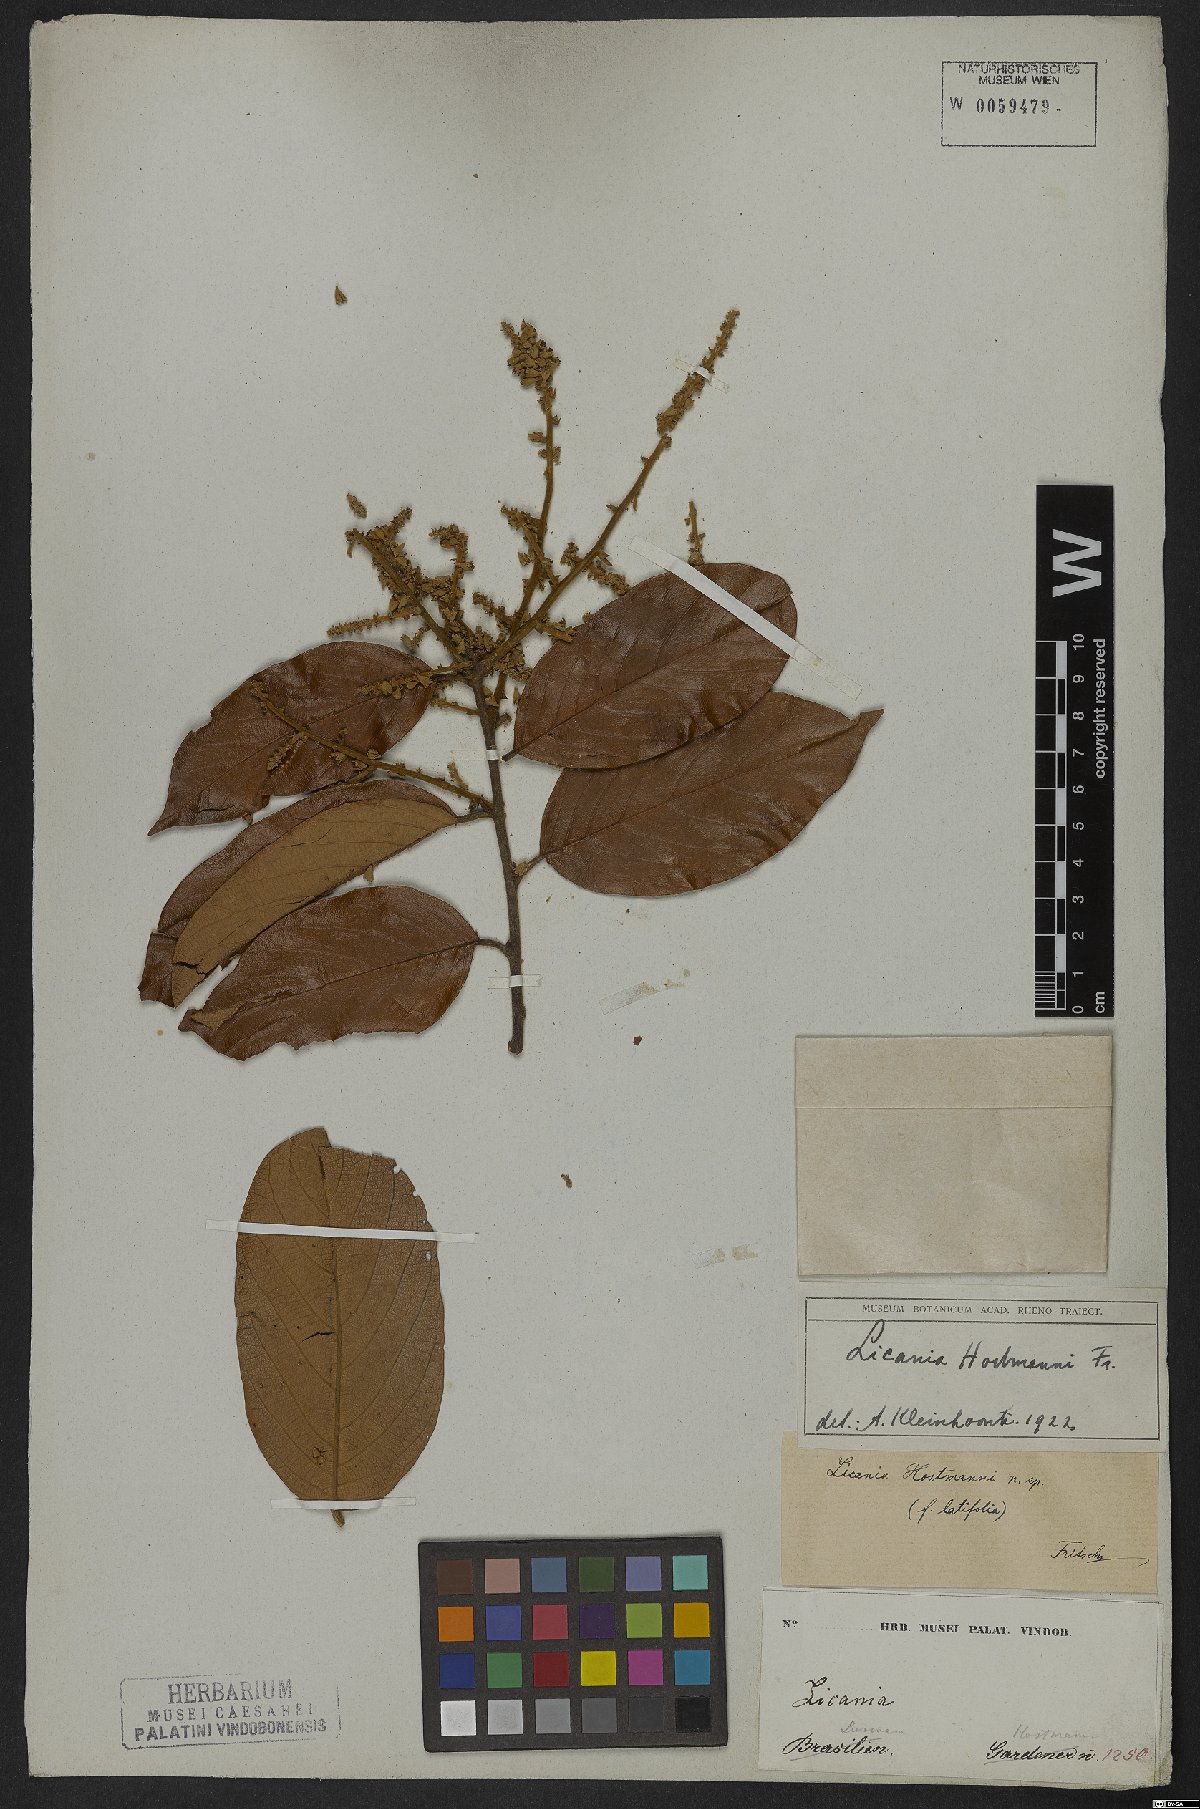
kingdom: Plantae
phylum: Tracheophyta
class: Magnoliopsida
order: Malpighiales
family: Chrysobalanaceae
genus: Licania
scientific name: Licania majuscula
